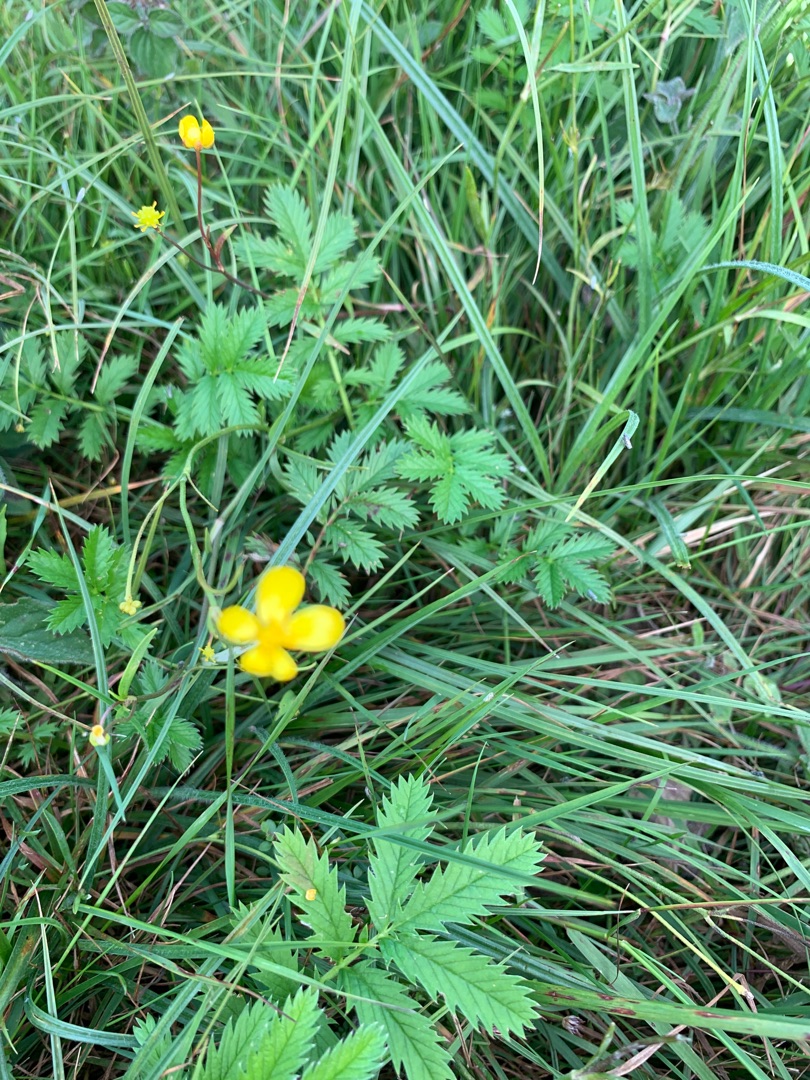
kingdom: Plantae
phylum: Tracheophyta
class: Magnoliopsida
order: Ranunculales
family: Ranunculaceae
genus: Ranunculus
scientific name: Ranunculus
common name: Ranunkelslægten
